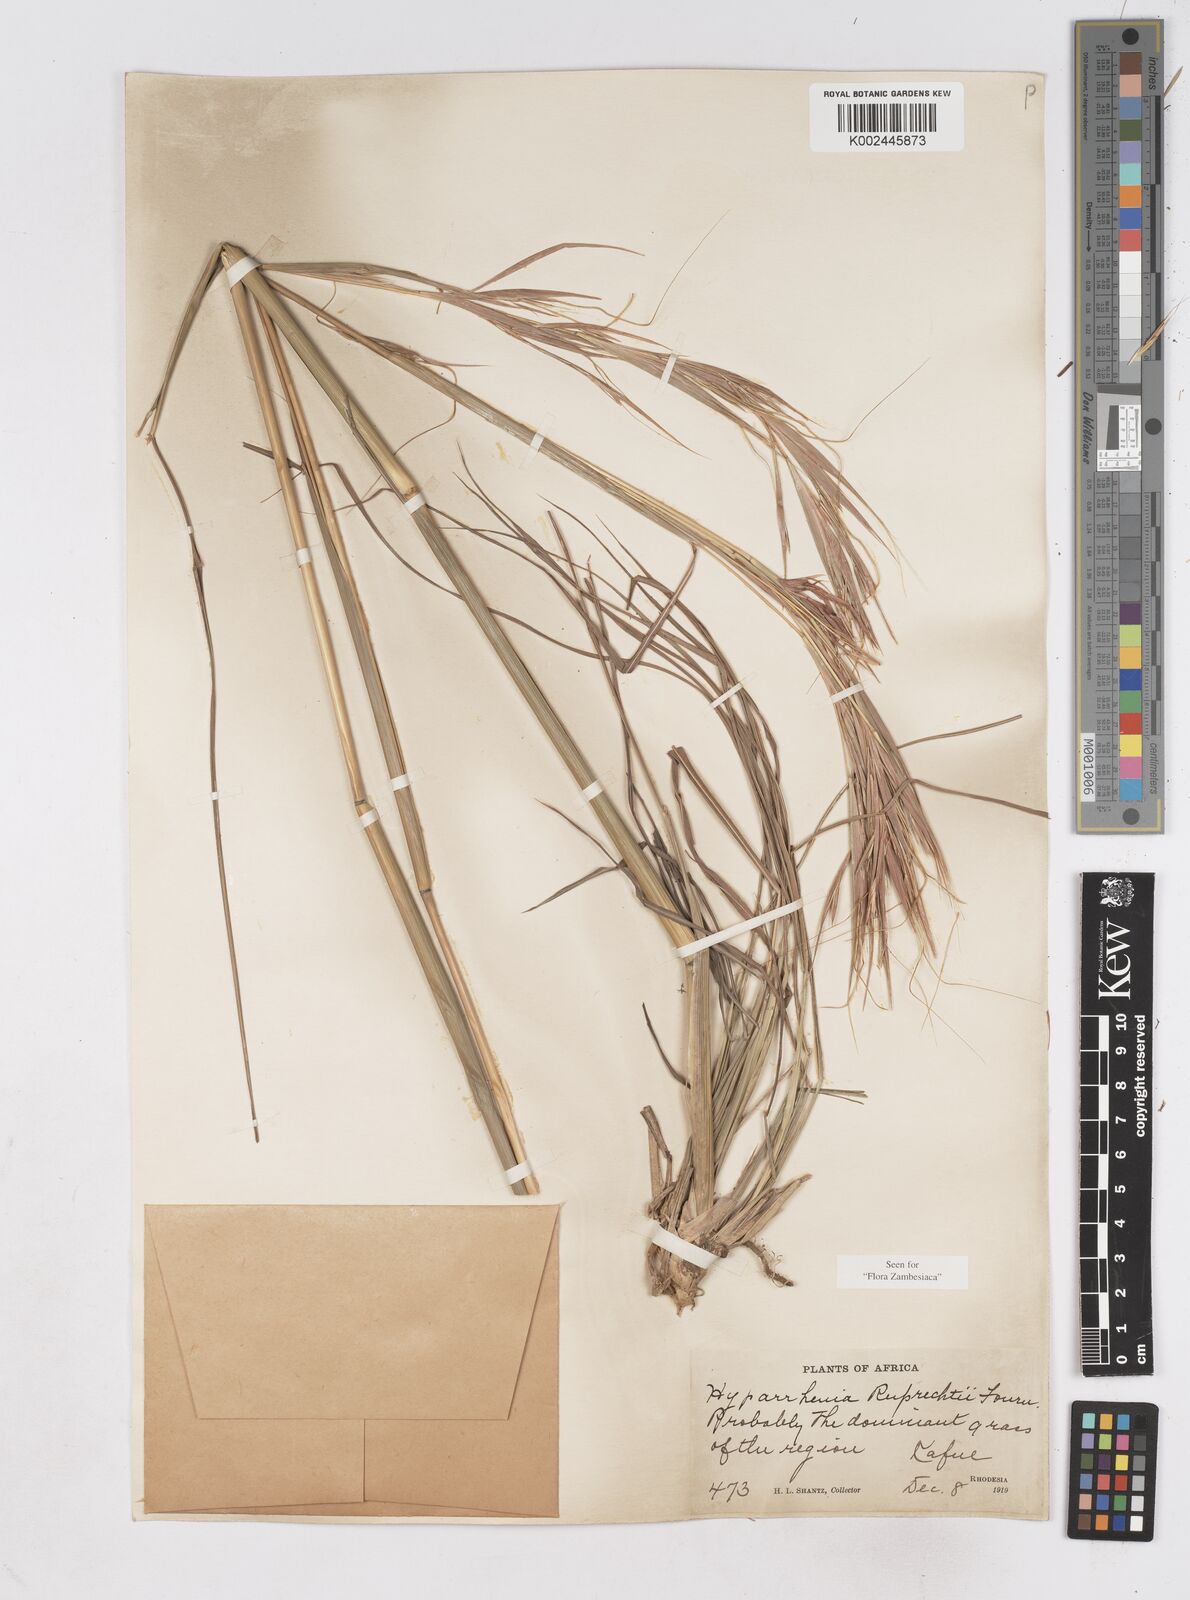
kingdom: Plantae
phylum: Tracheophyta
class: Liliopsida
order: Poales
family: Poaceae
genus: Hyperthelia
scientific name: Hyperthelia dissoluta
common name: Yellow thatching grass
